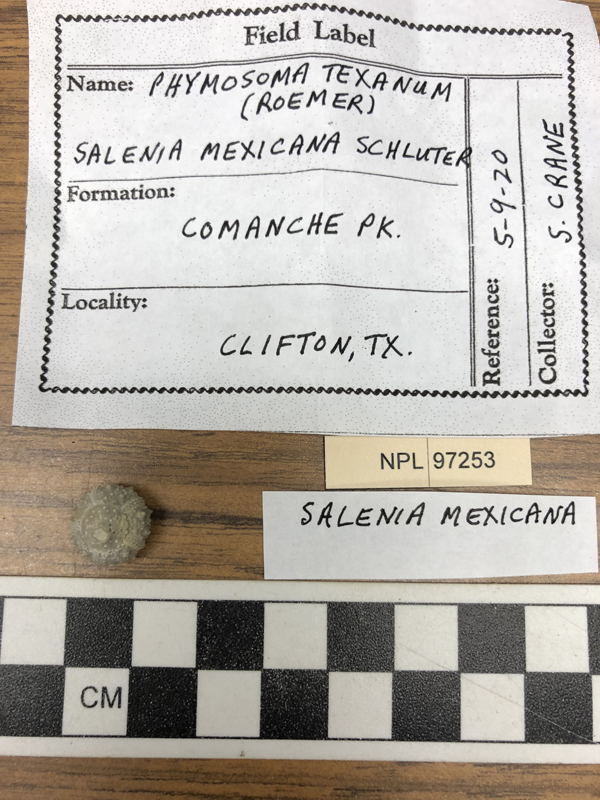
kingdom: Animalia
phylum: Echinodermata
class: Echinoidea
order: Salenioida
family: Saleniidae
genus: Salenia
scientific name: Salenia mexicana
